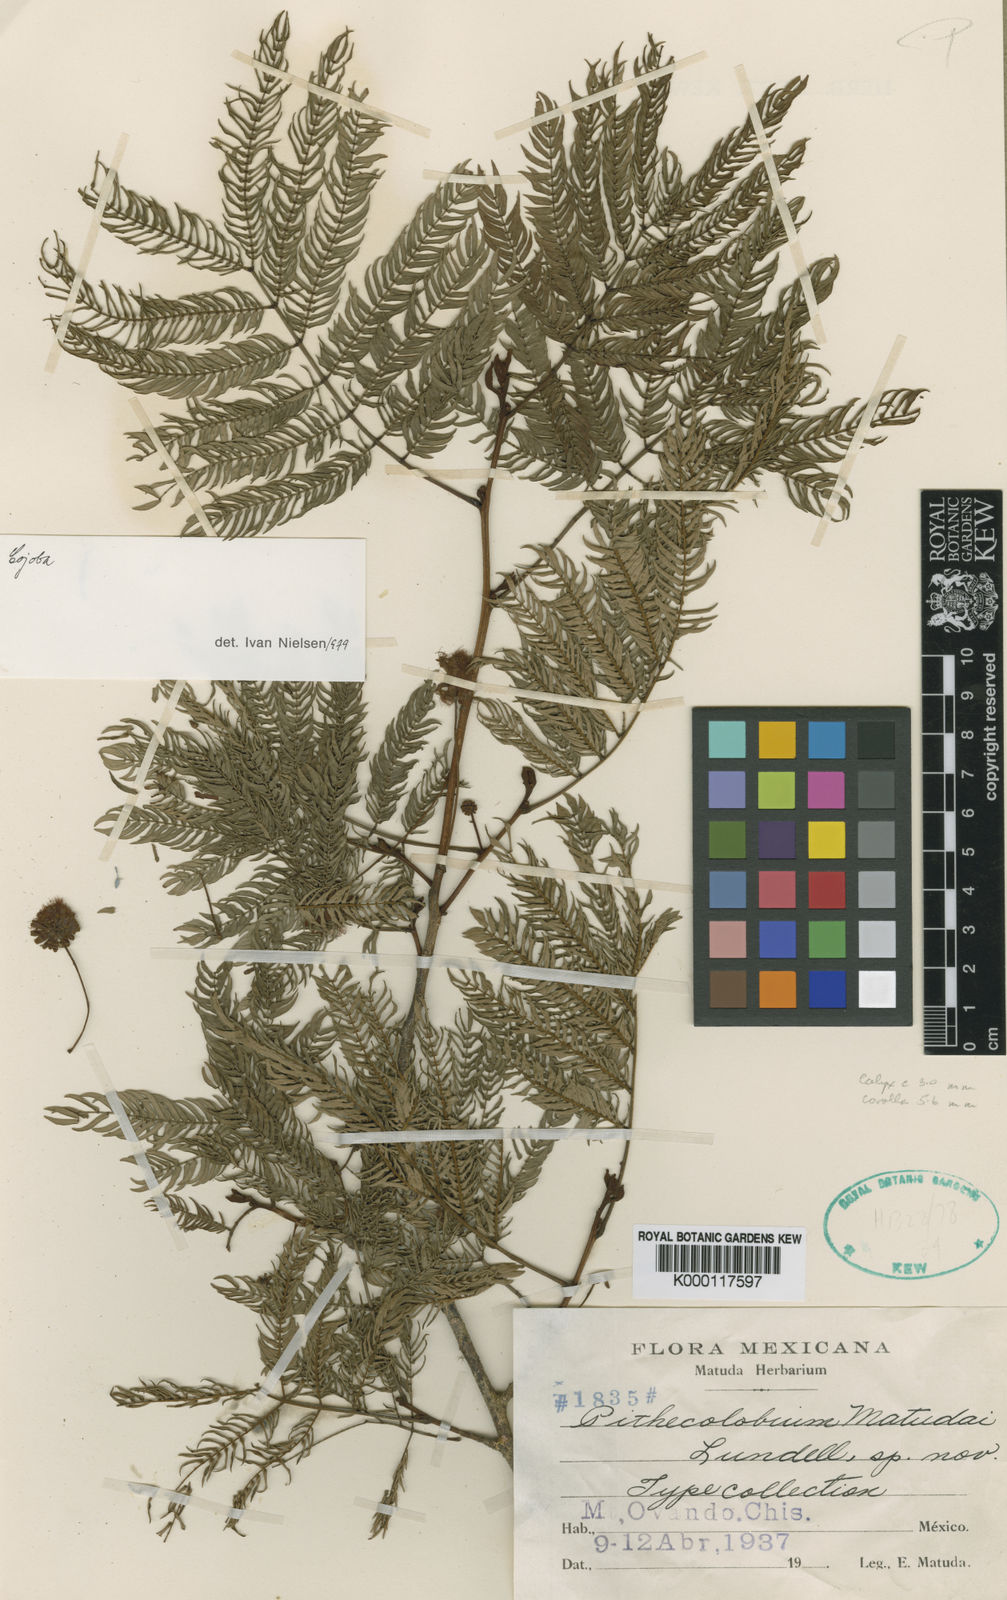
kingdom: Plantae
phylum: Tracheophyta
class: Magnoliopsida
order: Fabales
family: Fabaceae
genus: Cojoba
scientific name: Cojoba
